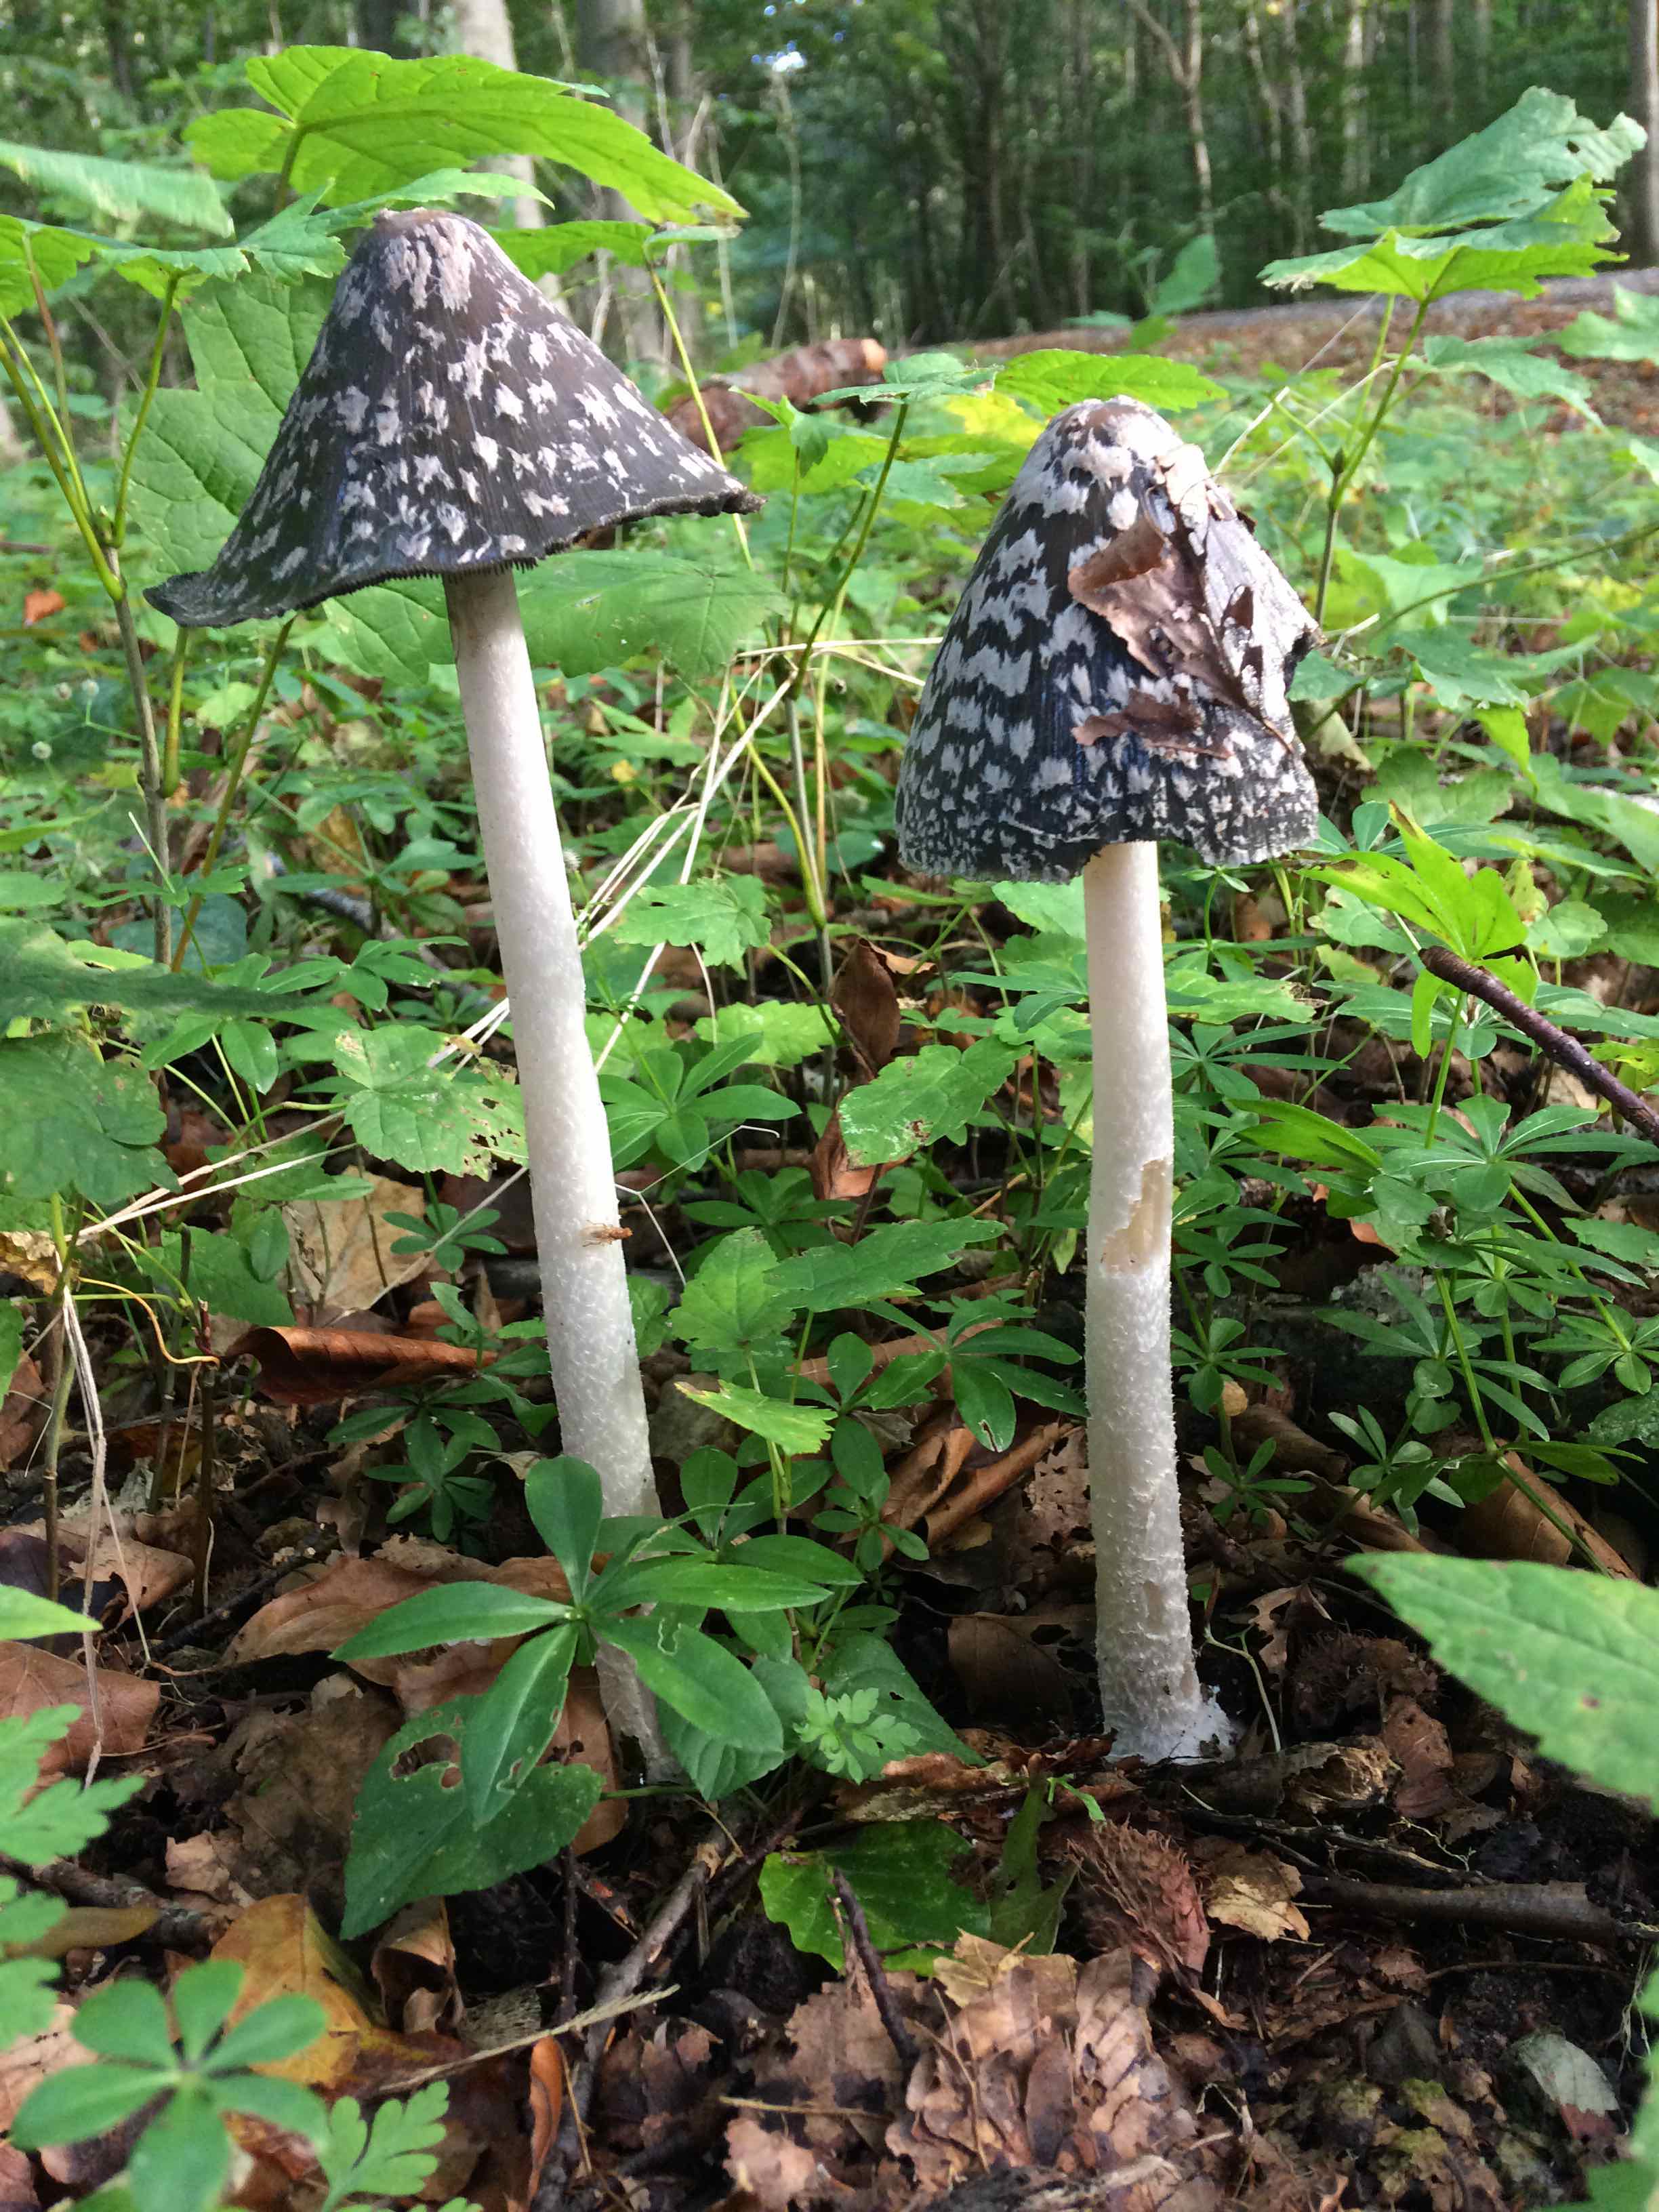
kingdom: Fungi
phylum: Basidiomycota
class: Agaricomycetes
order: Agaricales
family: Psathyrellaceae
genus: Coprinopsis
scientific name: Coprinopsis picacea
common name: skade-blækhat
